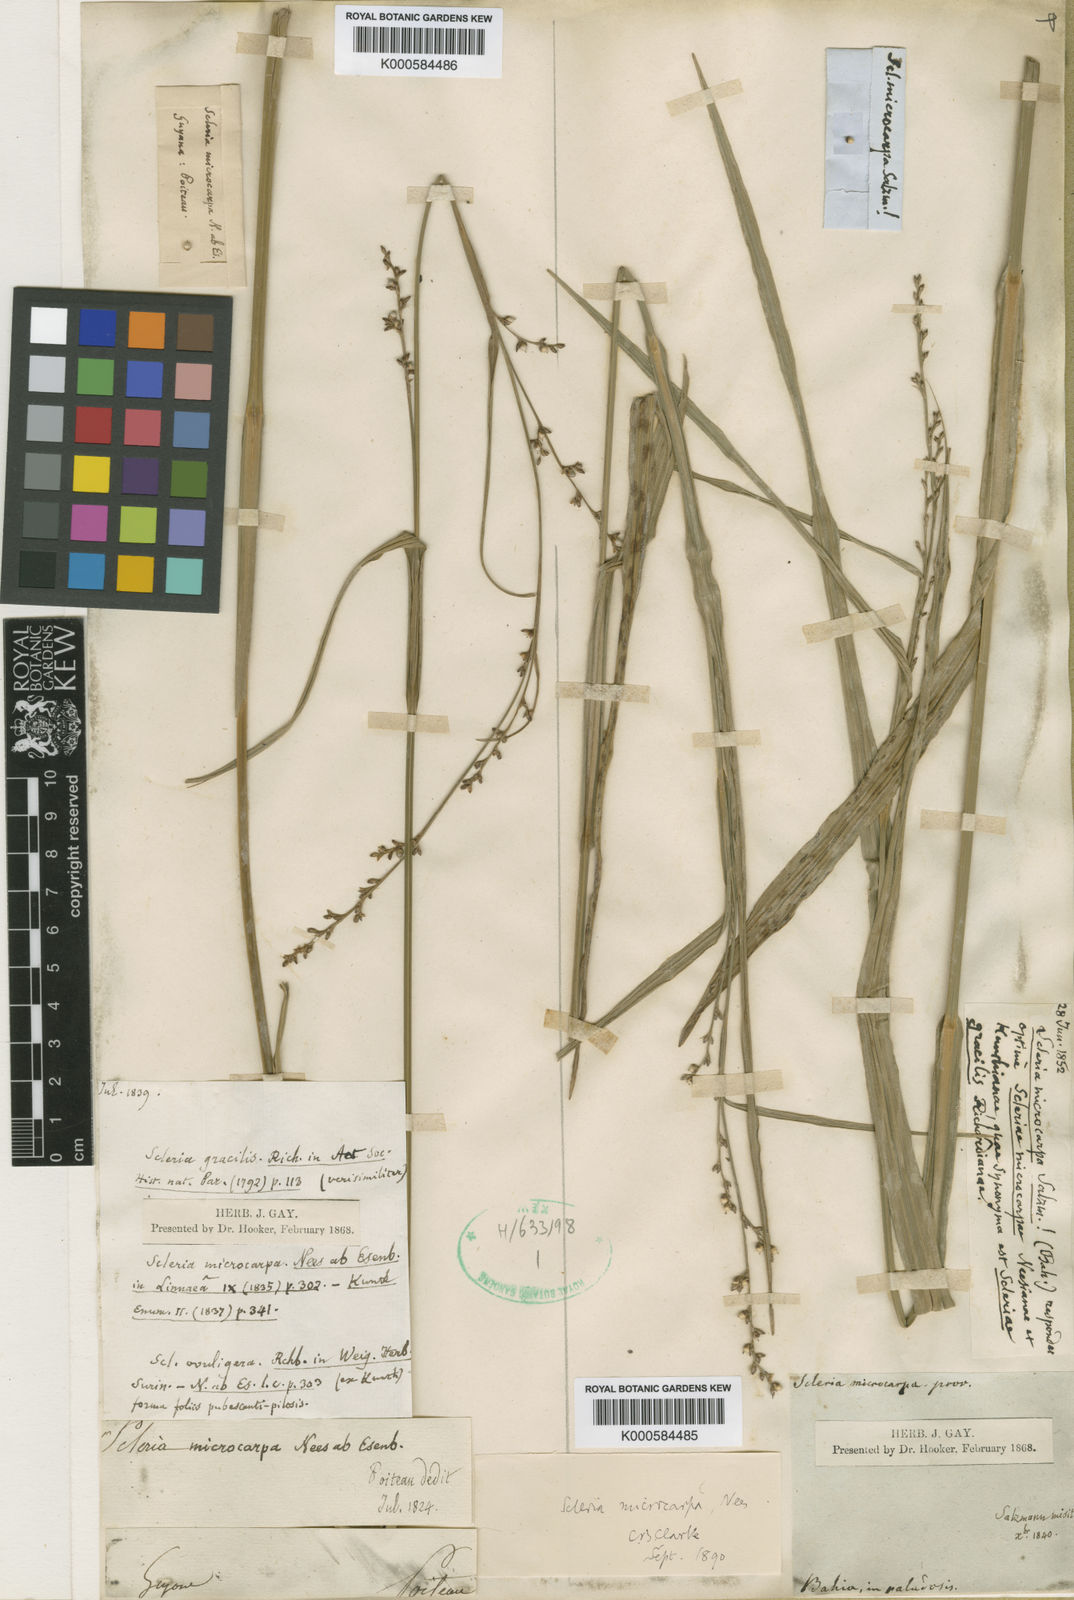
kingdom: Plantae
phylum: Tracheophyta
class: Liliopsida
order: Poales
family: Cyperaceae
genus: Scleria
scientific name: Scleria
